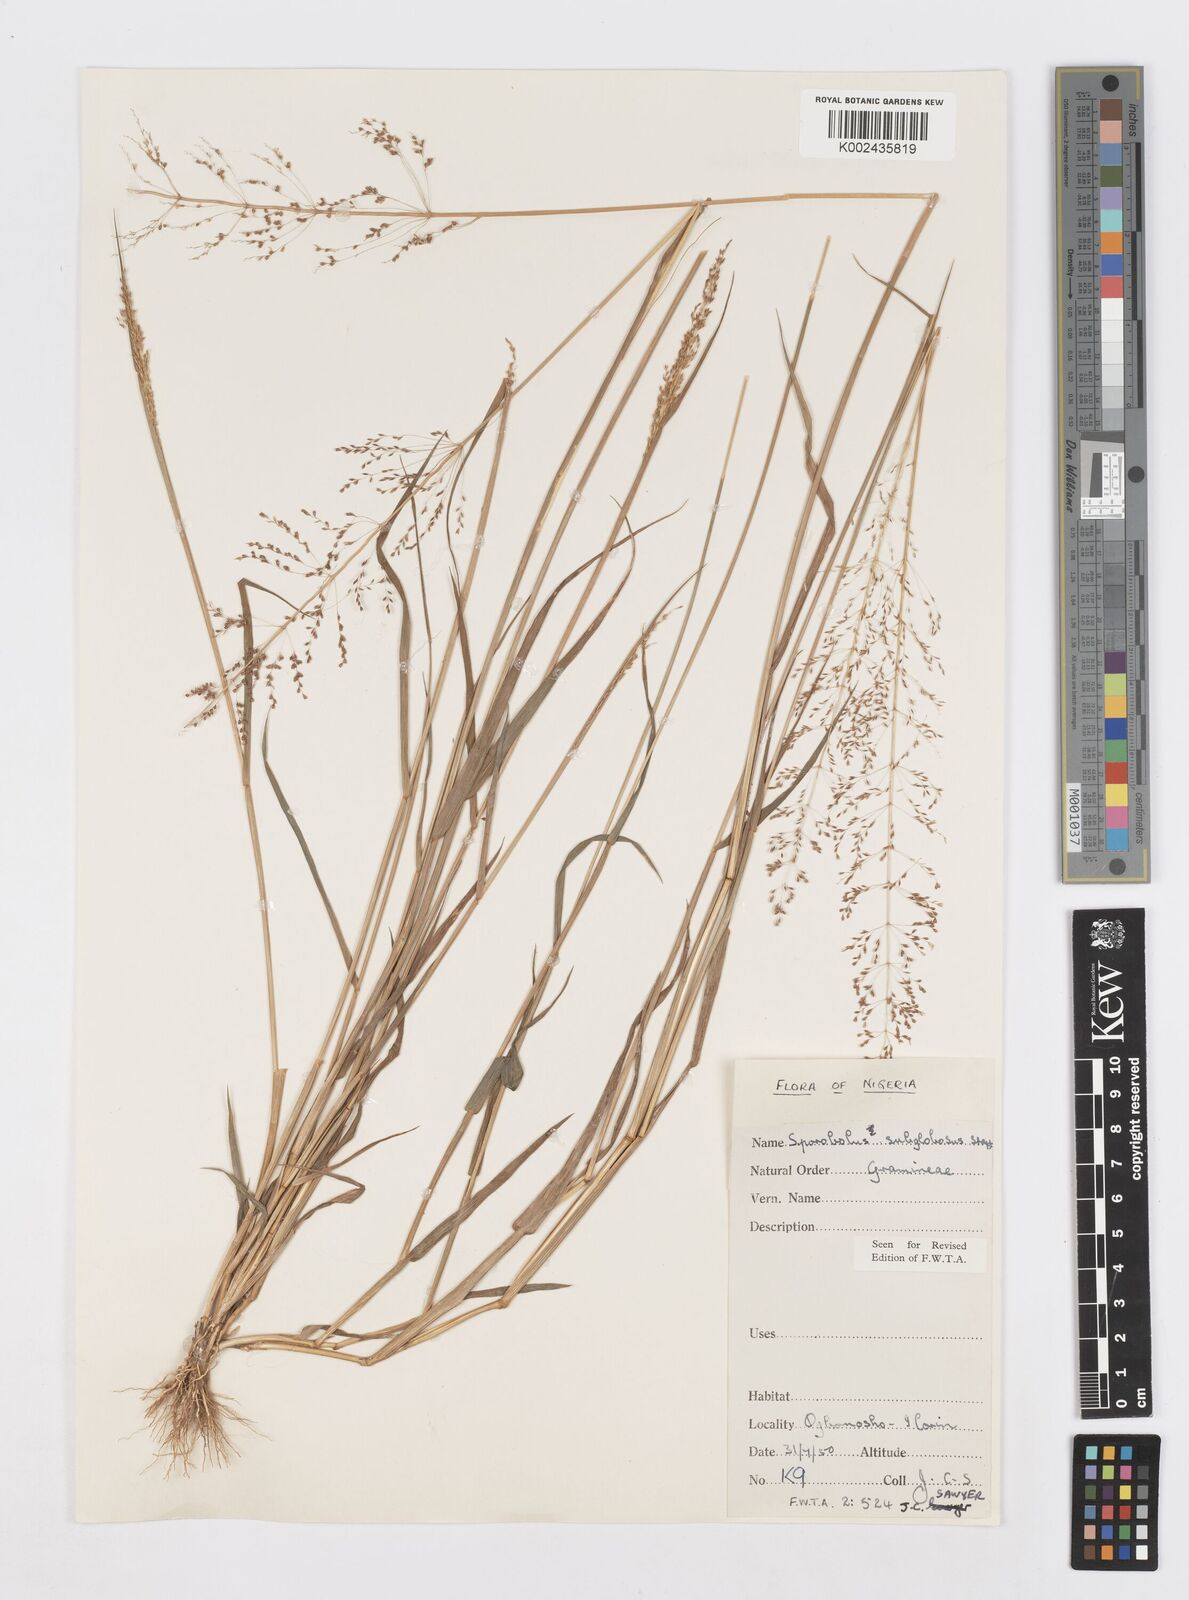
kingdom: Plantae
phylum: Tracheophyta
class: Liliopsida
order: Poales
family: Poaceae
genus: Sporobolus
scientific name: Sporobolus subglobosus
